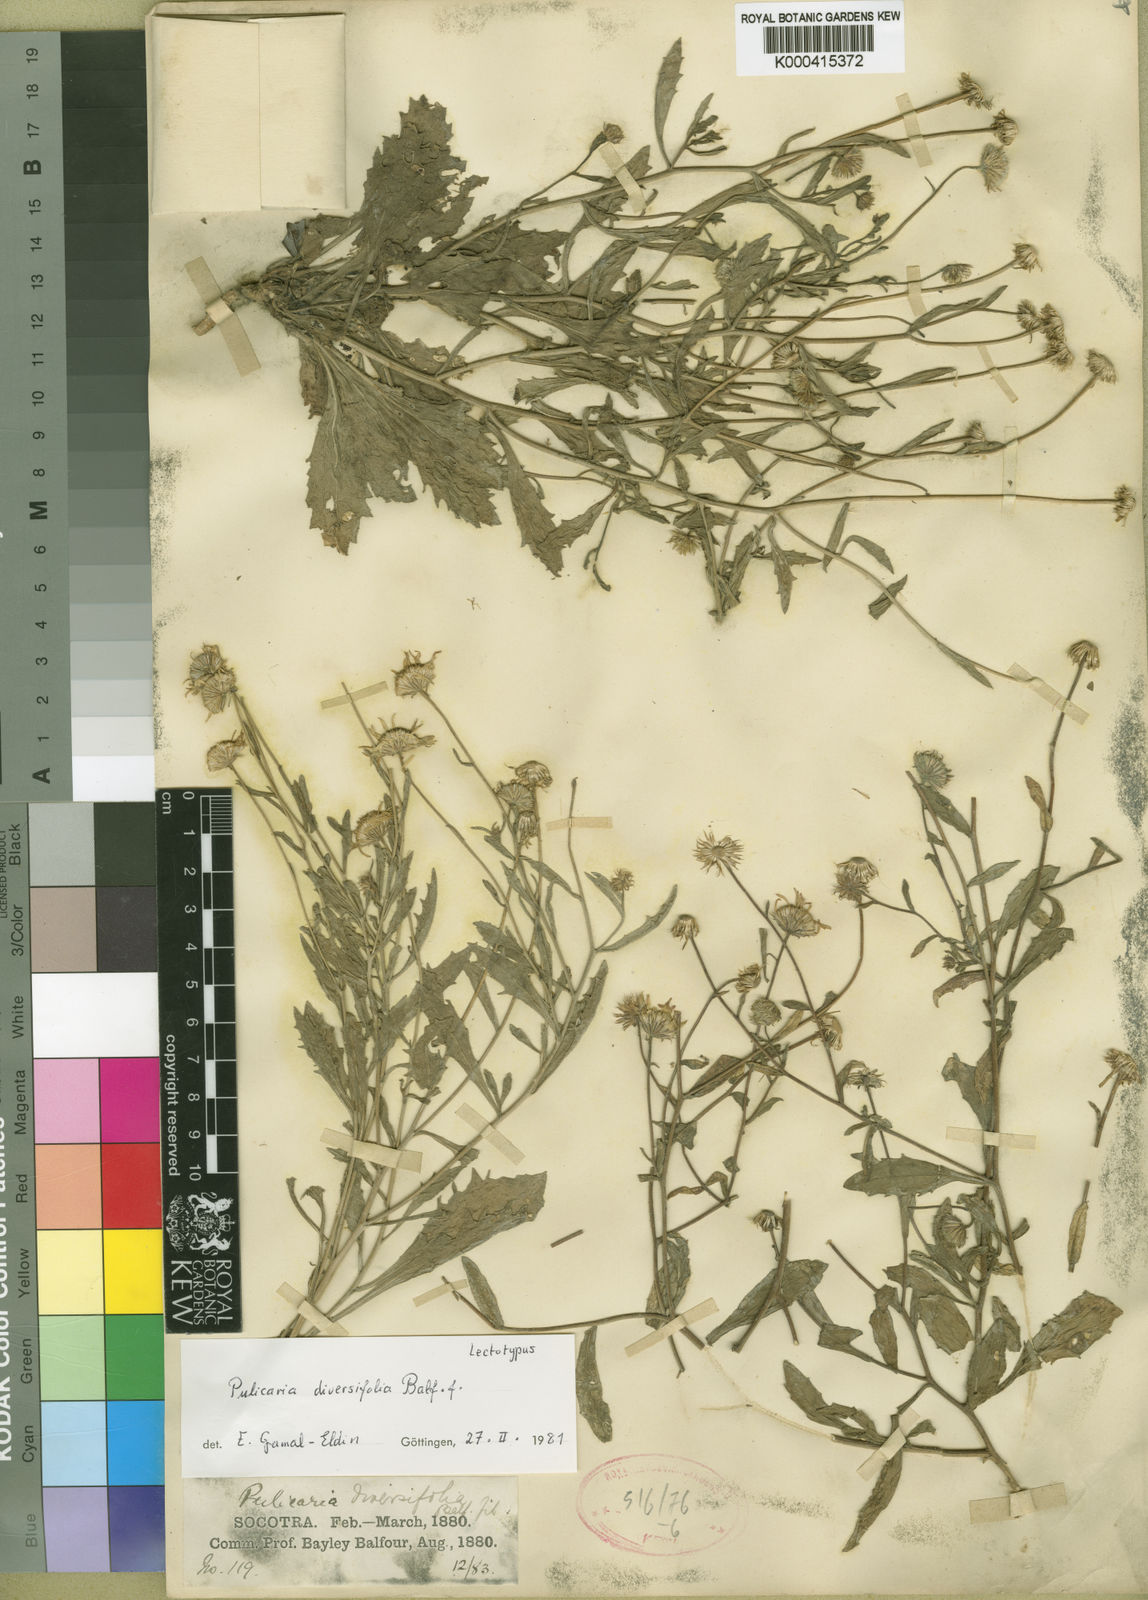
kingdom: Plantae
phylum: Tracheophyta
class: Magnoliopsida
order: Asterales
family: Asteraceae
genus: Pulicaria
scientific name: Pulicaria diversifolia
